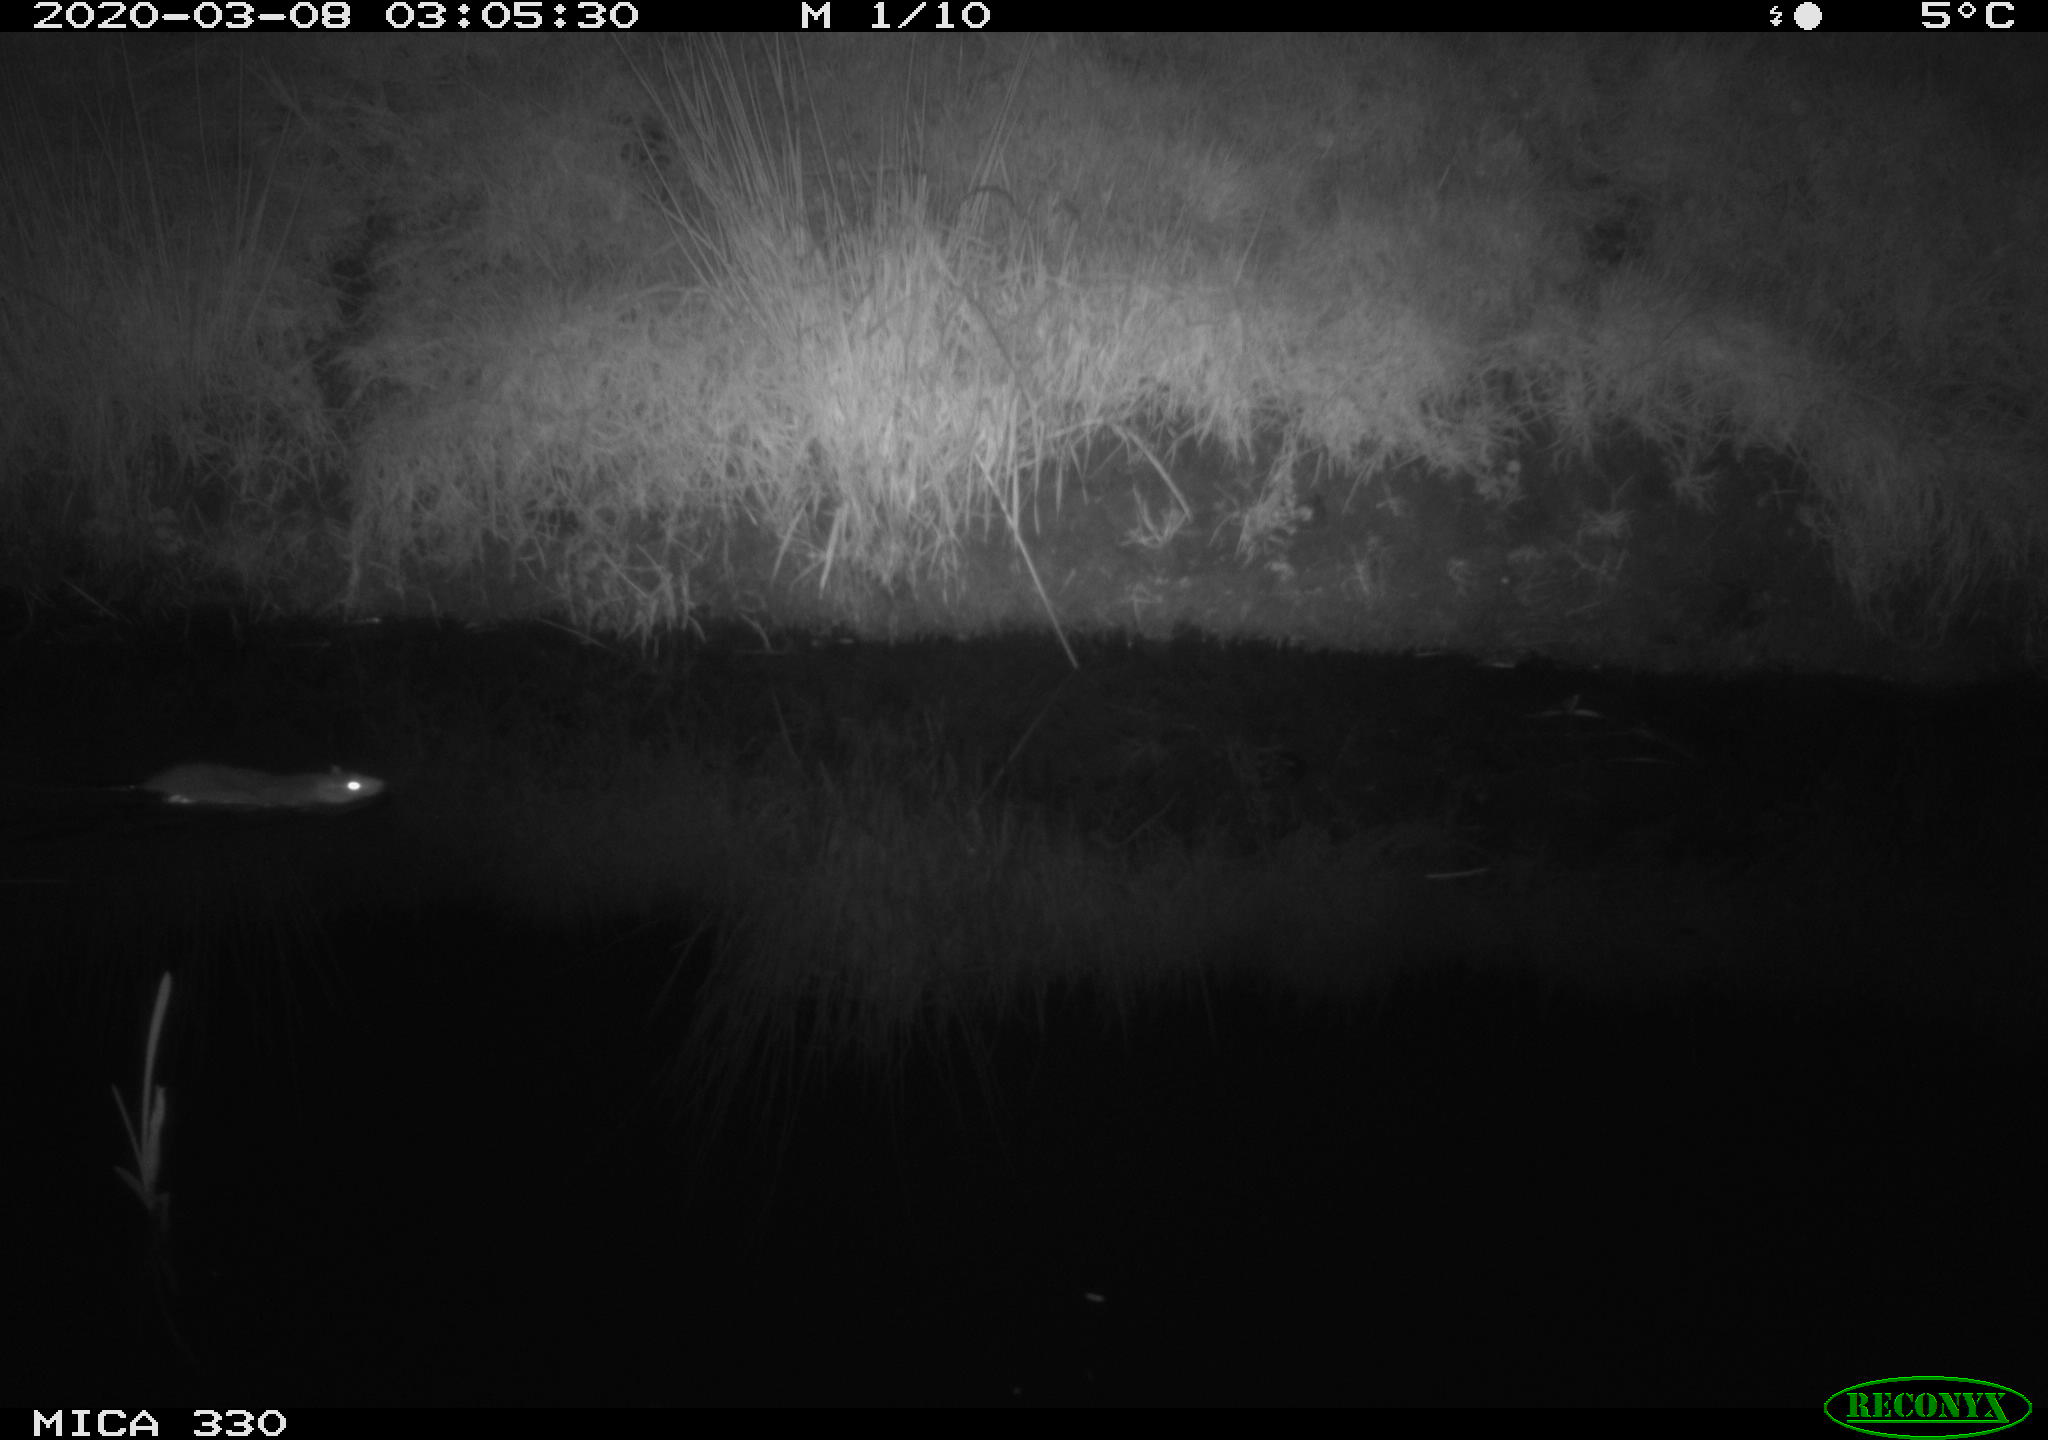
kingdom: Animalia
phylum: Chordata
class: Mammalia
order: Rodentia
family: Muridae
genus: Rattus
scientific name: Rattus norvegicus
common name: Brown rat
